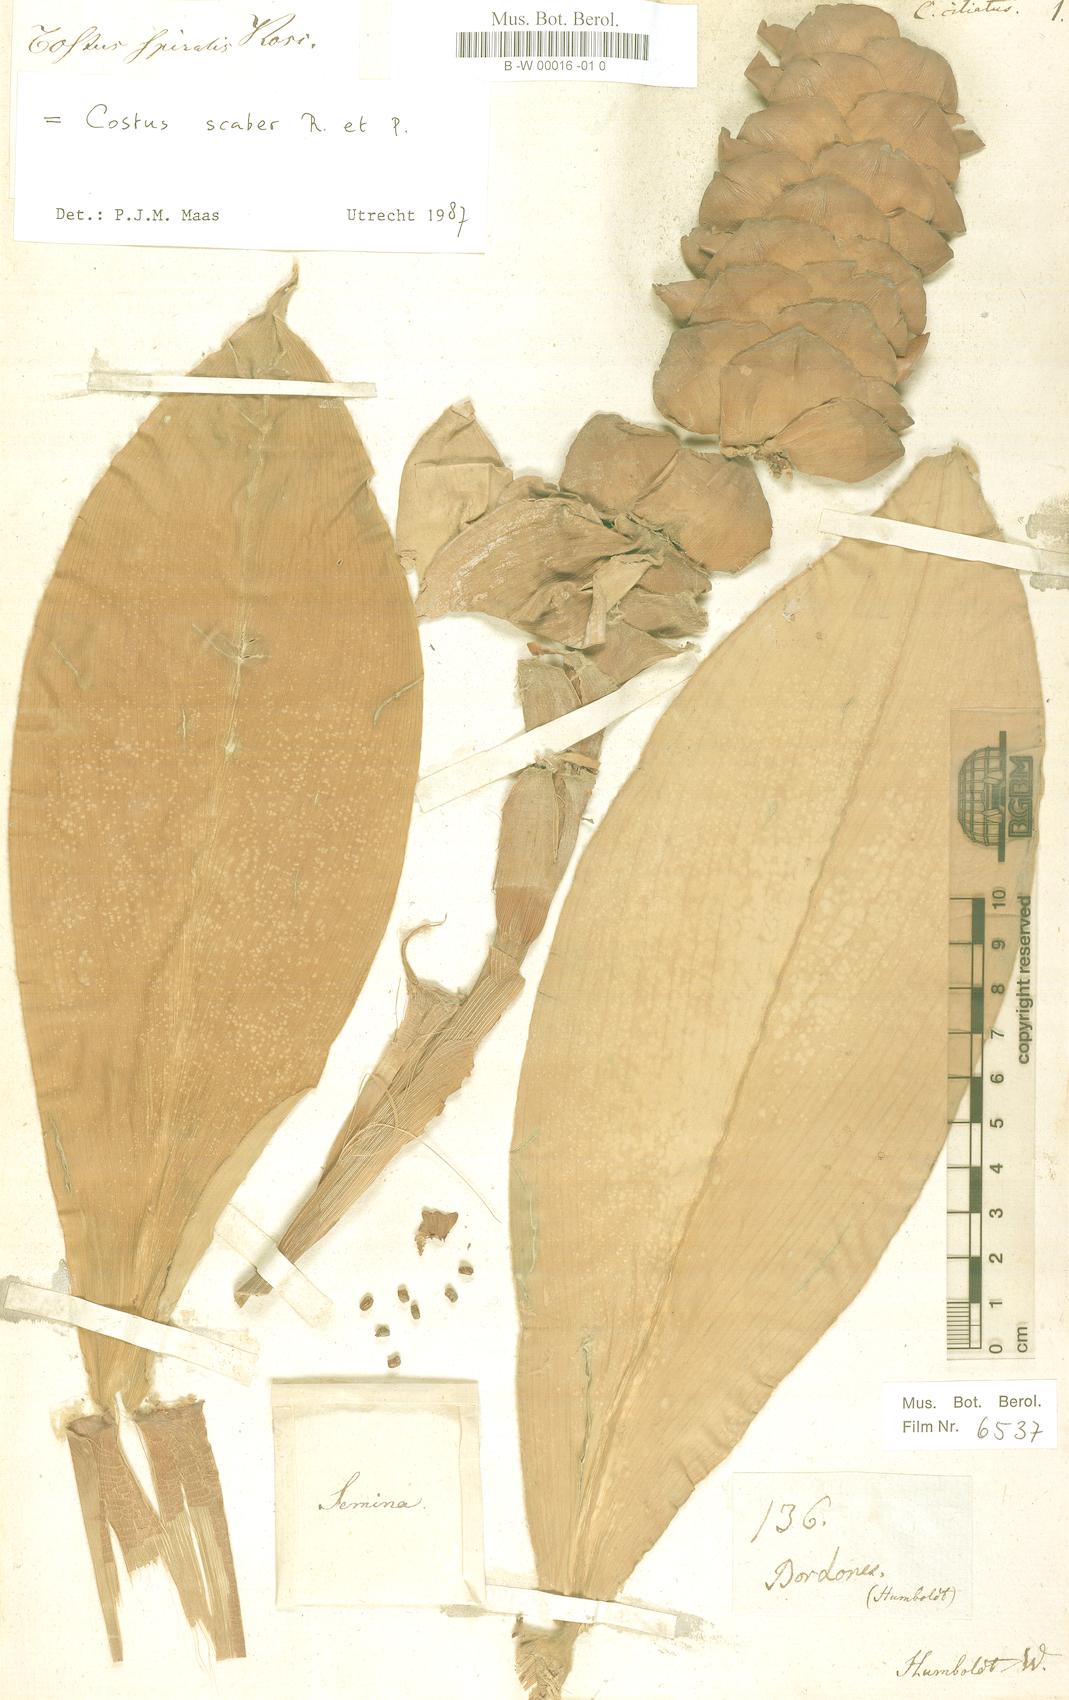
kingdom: Plantae
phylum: Tracheophyta
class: Liliopsida
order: Zingiberales
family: Costaceae
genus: Costus
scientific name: Costus scaber
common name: Spiral head ginger
